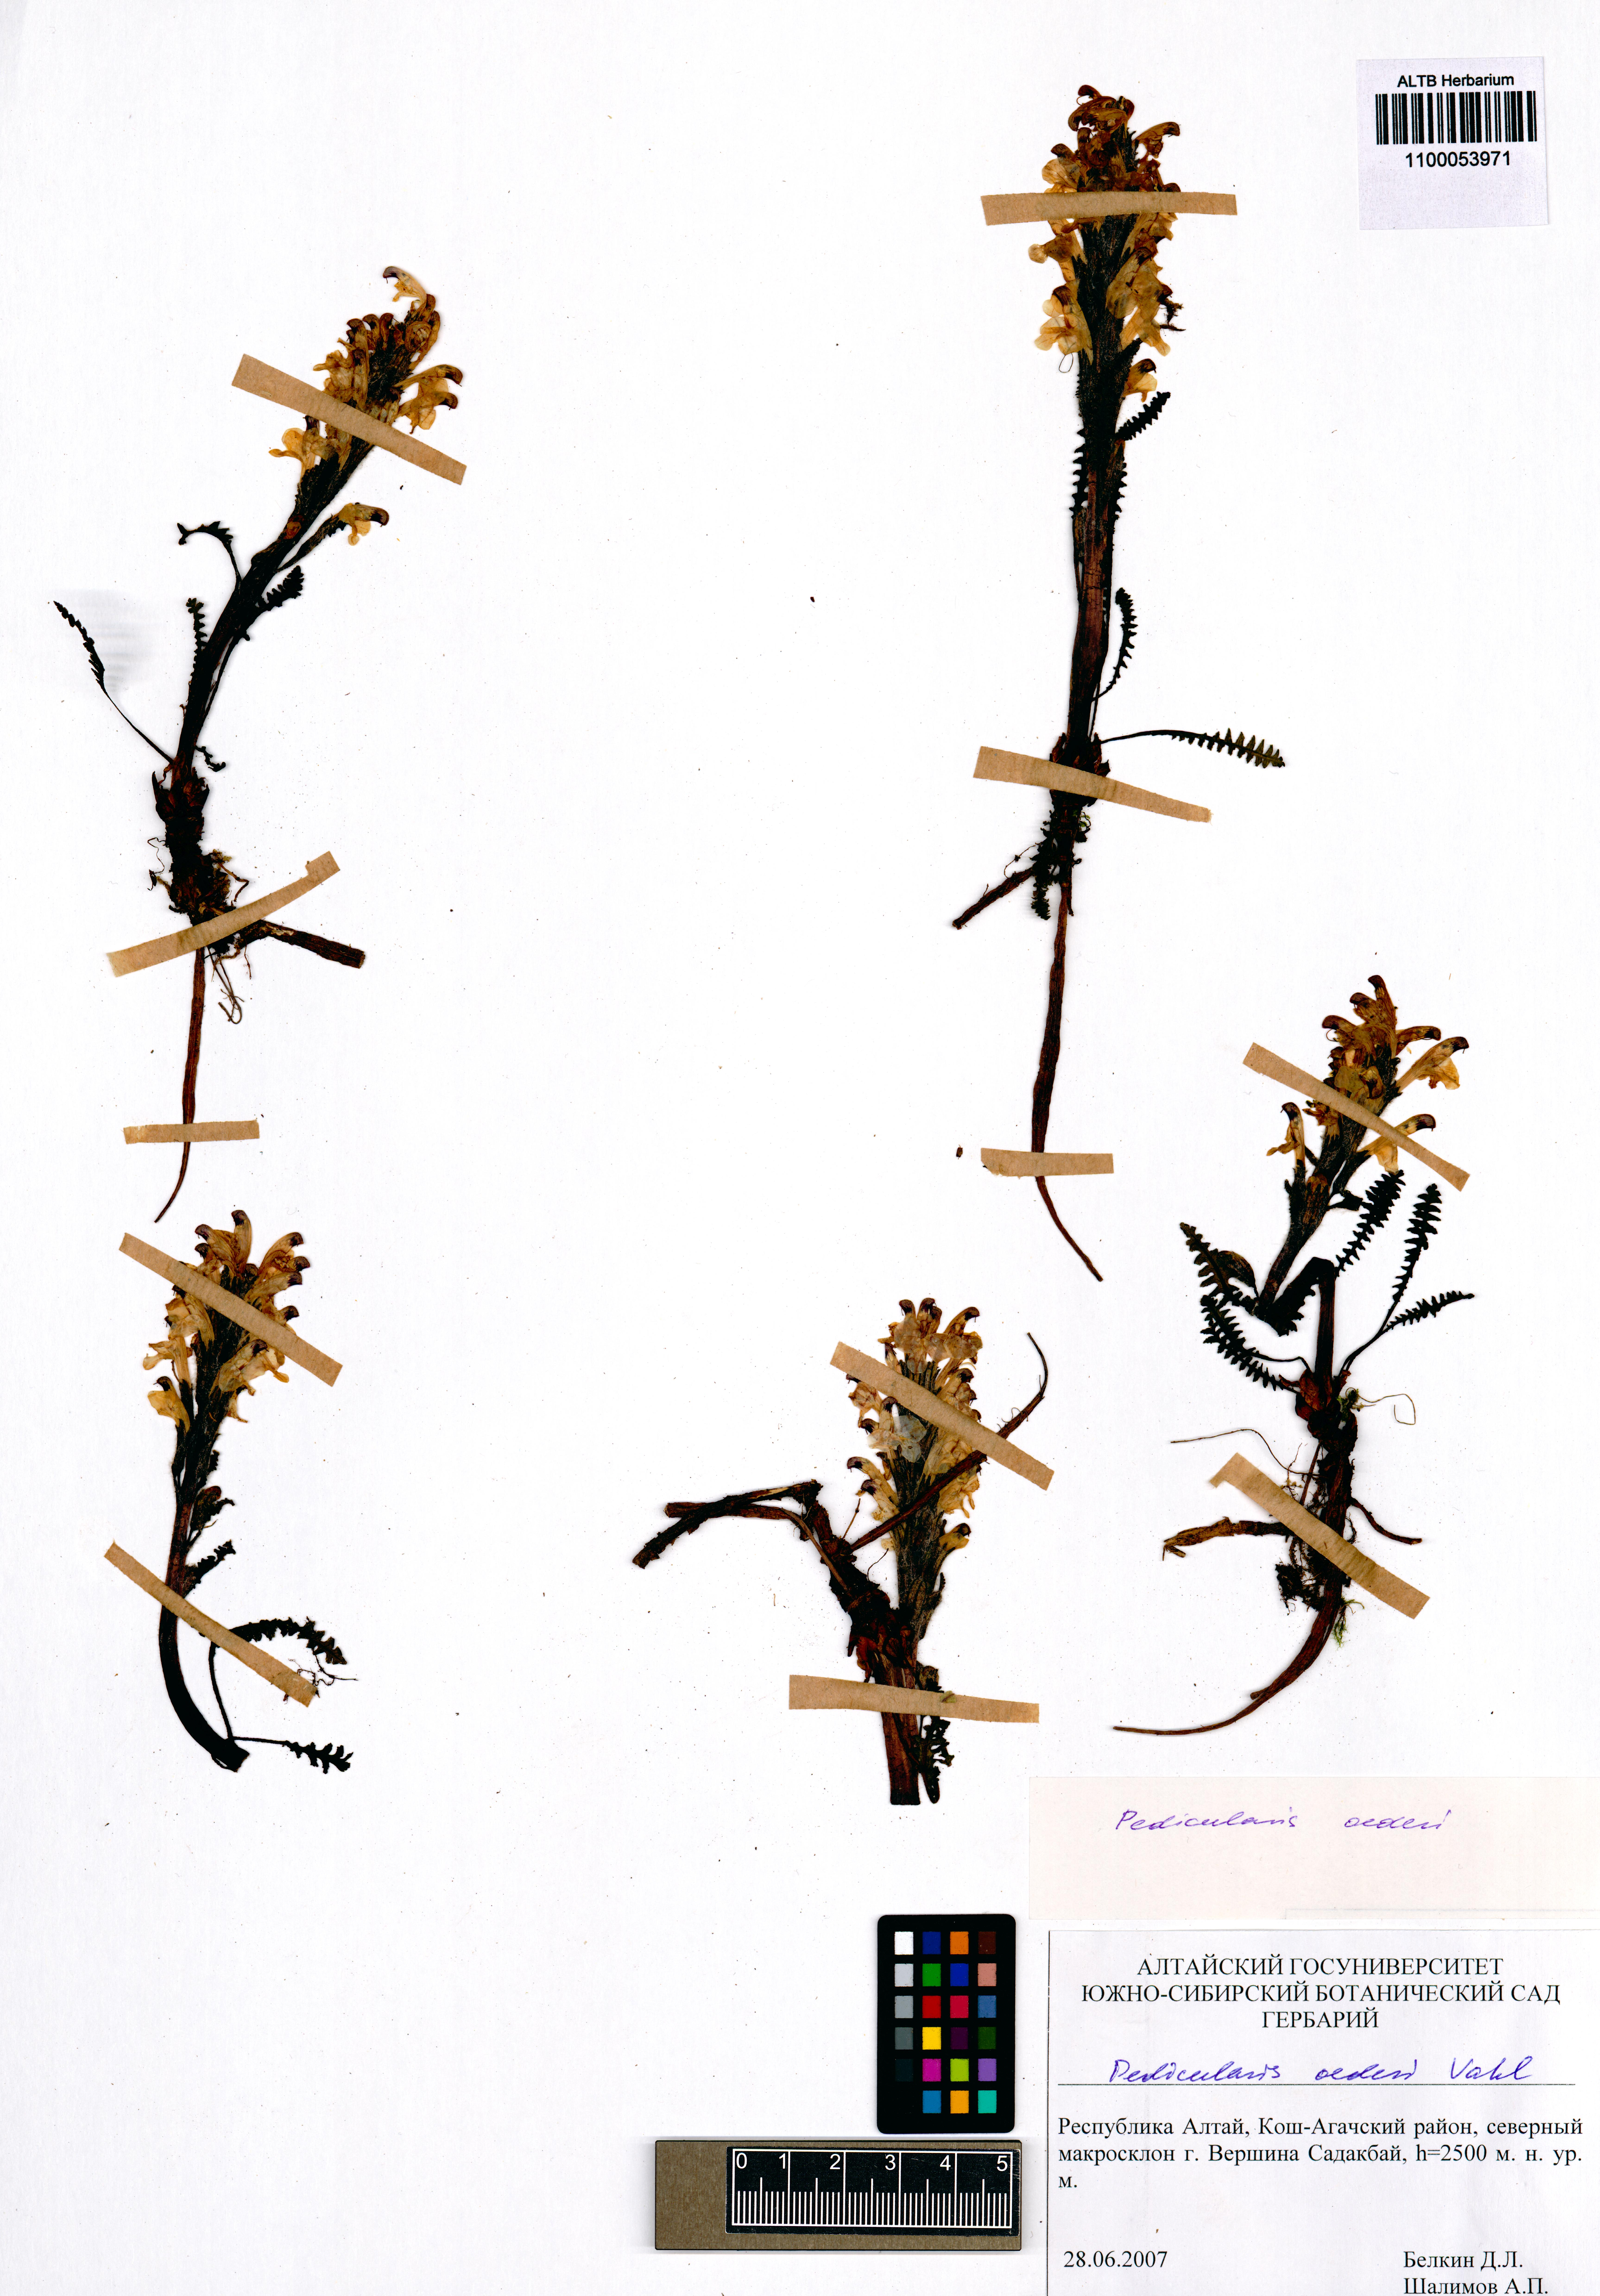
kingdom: Plantae
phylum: Tracheophyta
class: Magnoliopsida
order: Lamiales
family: Orobanchaceae
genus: Pedicularis
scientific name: Pedicularis oederi
